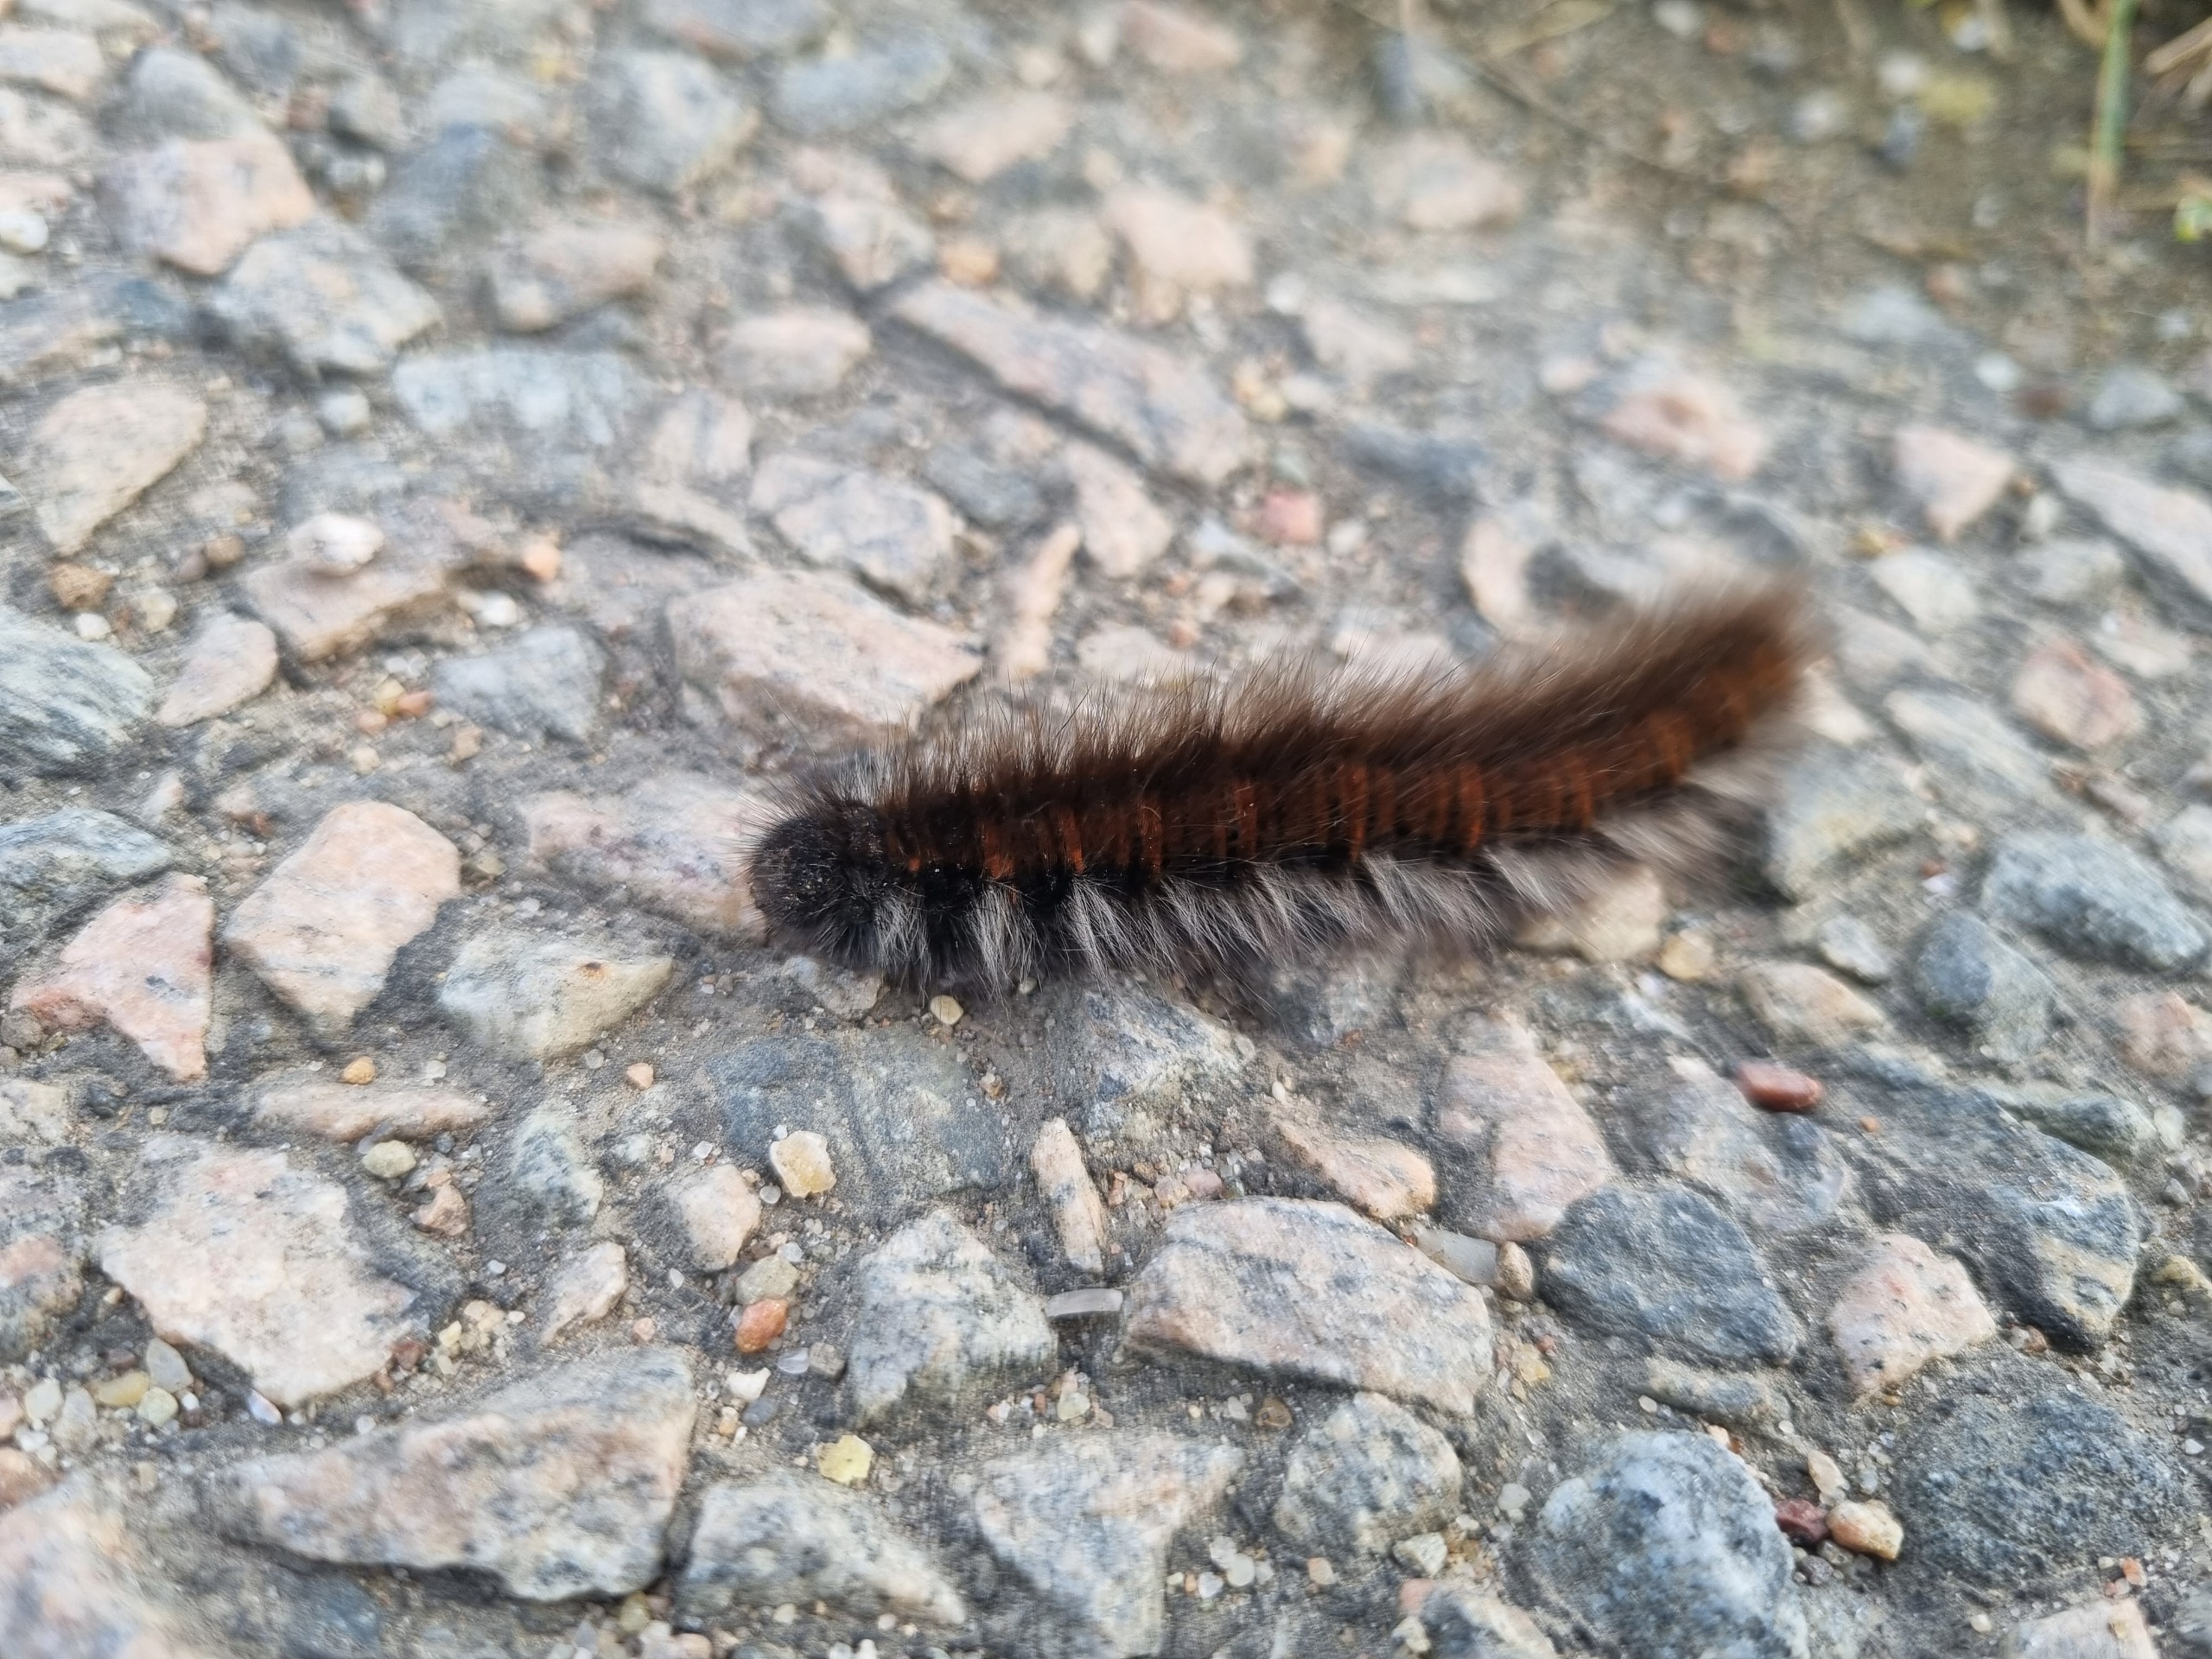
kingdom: Animalia
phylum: Arthropoda
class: Insecta
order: Lepidoptera
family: Lasiocampidae
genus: Macrothylacia
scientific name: Macrothylacia rubi
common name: Brombærspinder
